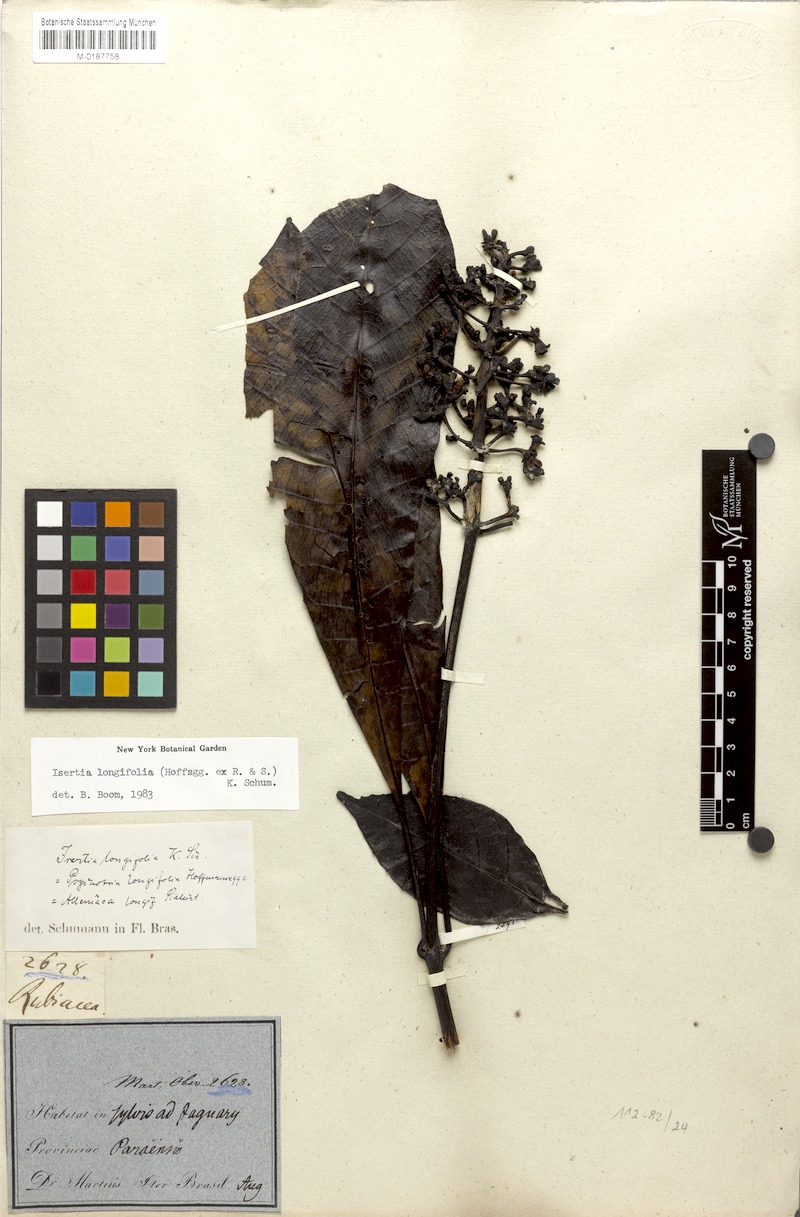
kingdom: Plantae
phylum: Tracheophyta
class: Magnoliopsida
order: Gentianales
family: Rubiaceae
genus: Isertia
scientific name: Isertia longifolia
